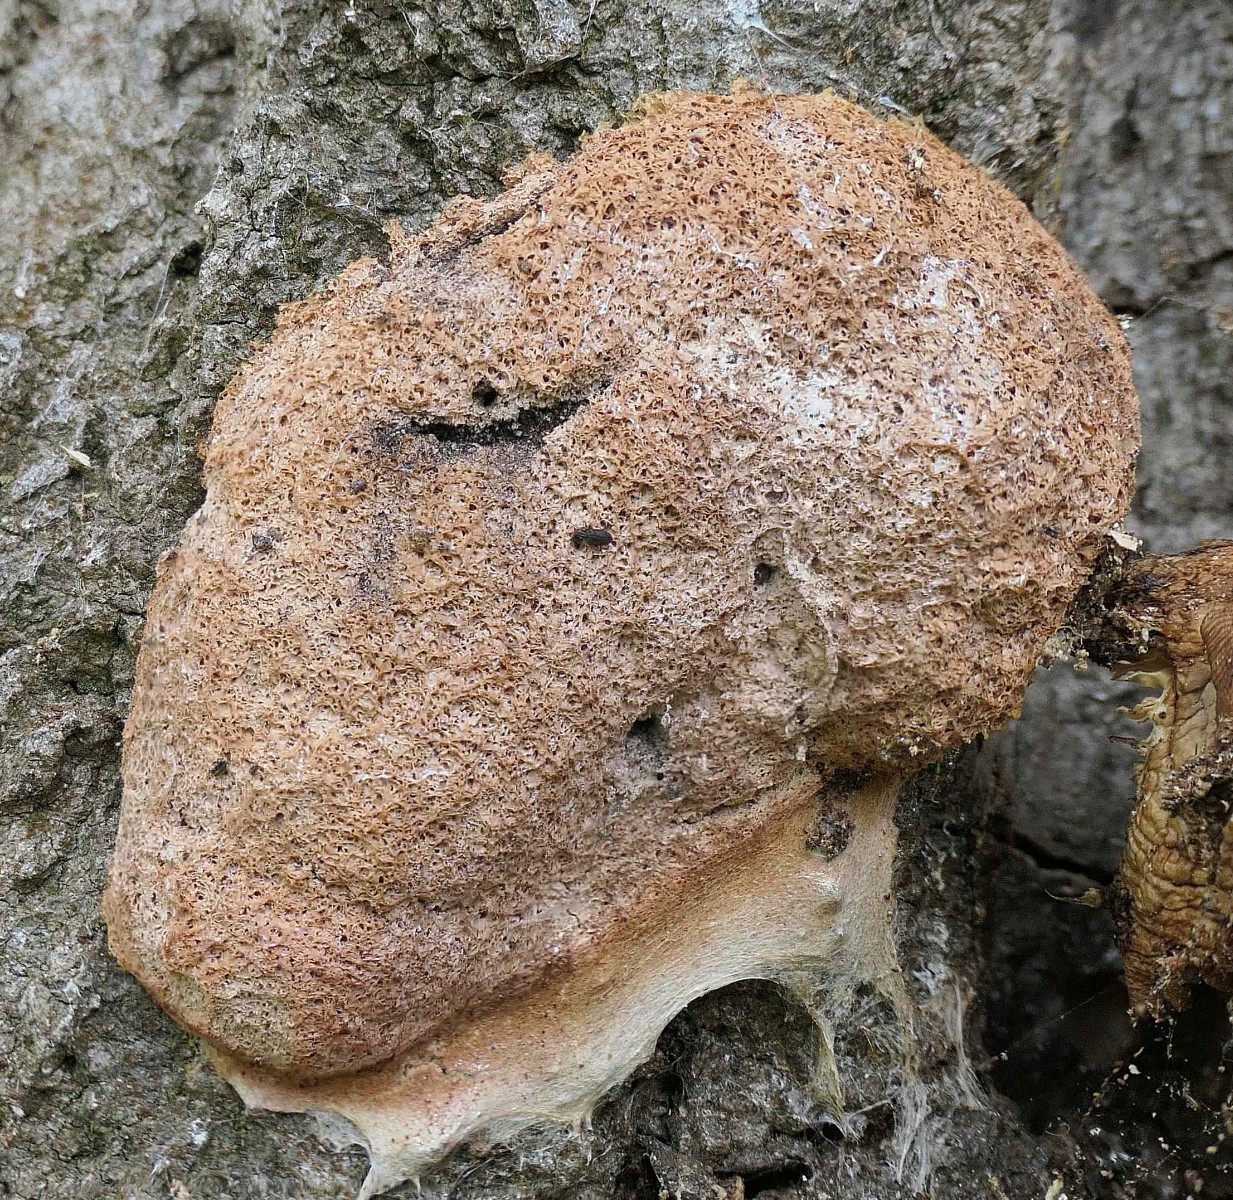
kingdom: Protozoa
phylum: Mycetozoa
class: Myxomycetes
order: Physarales
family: Physaraceae
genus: Fuligo
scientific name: Fuligo septica
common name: Dog vomit slime mold
